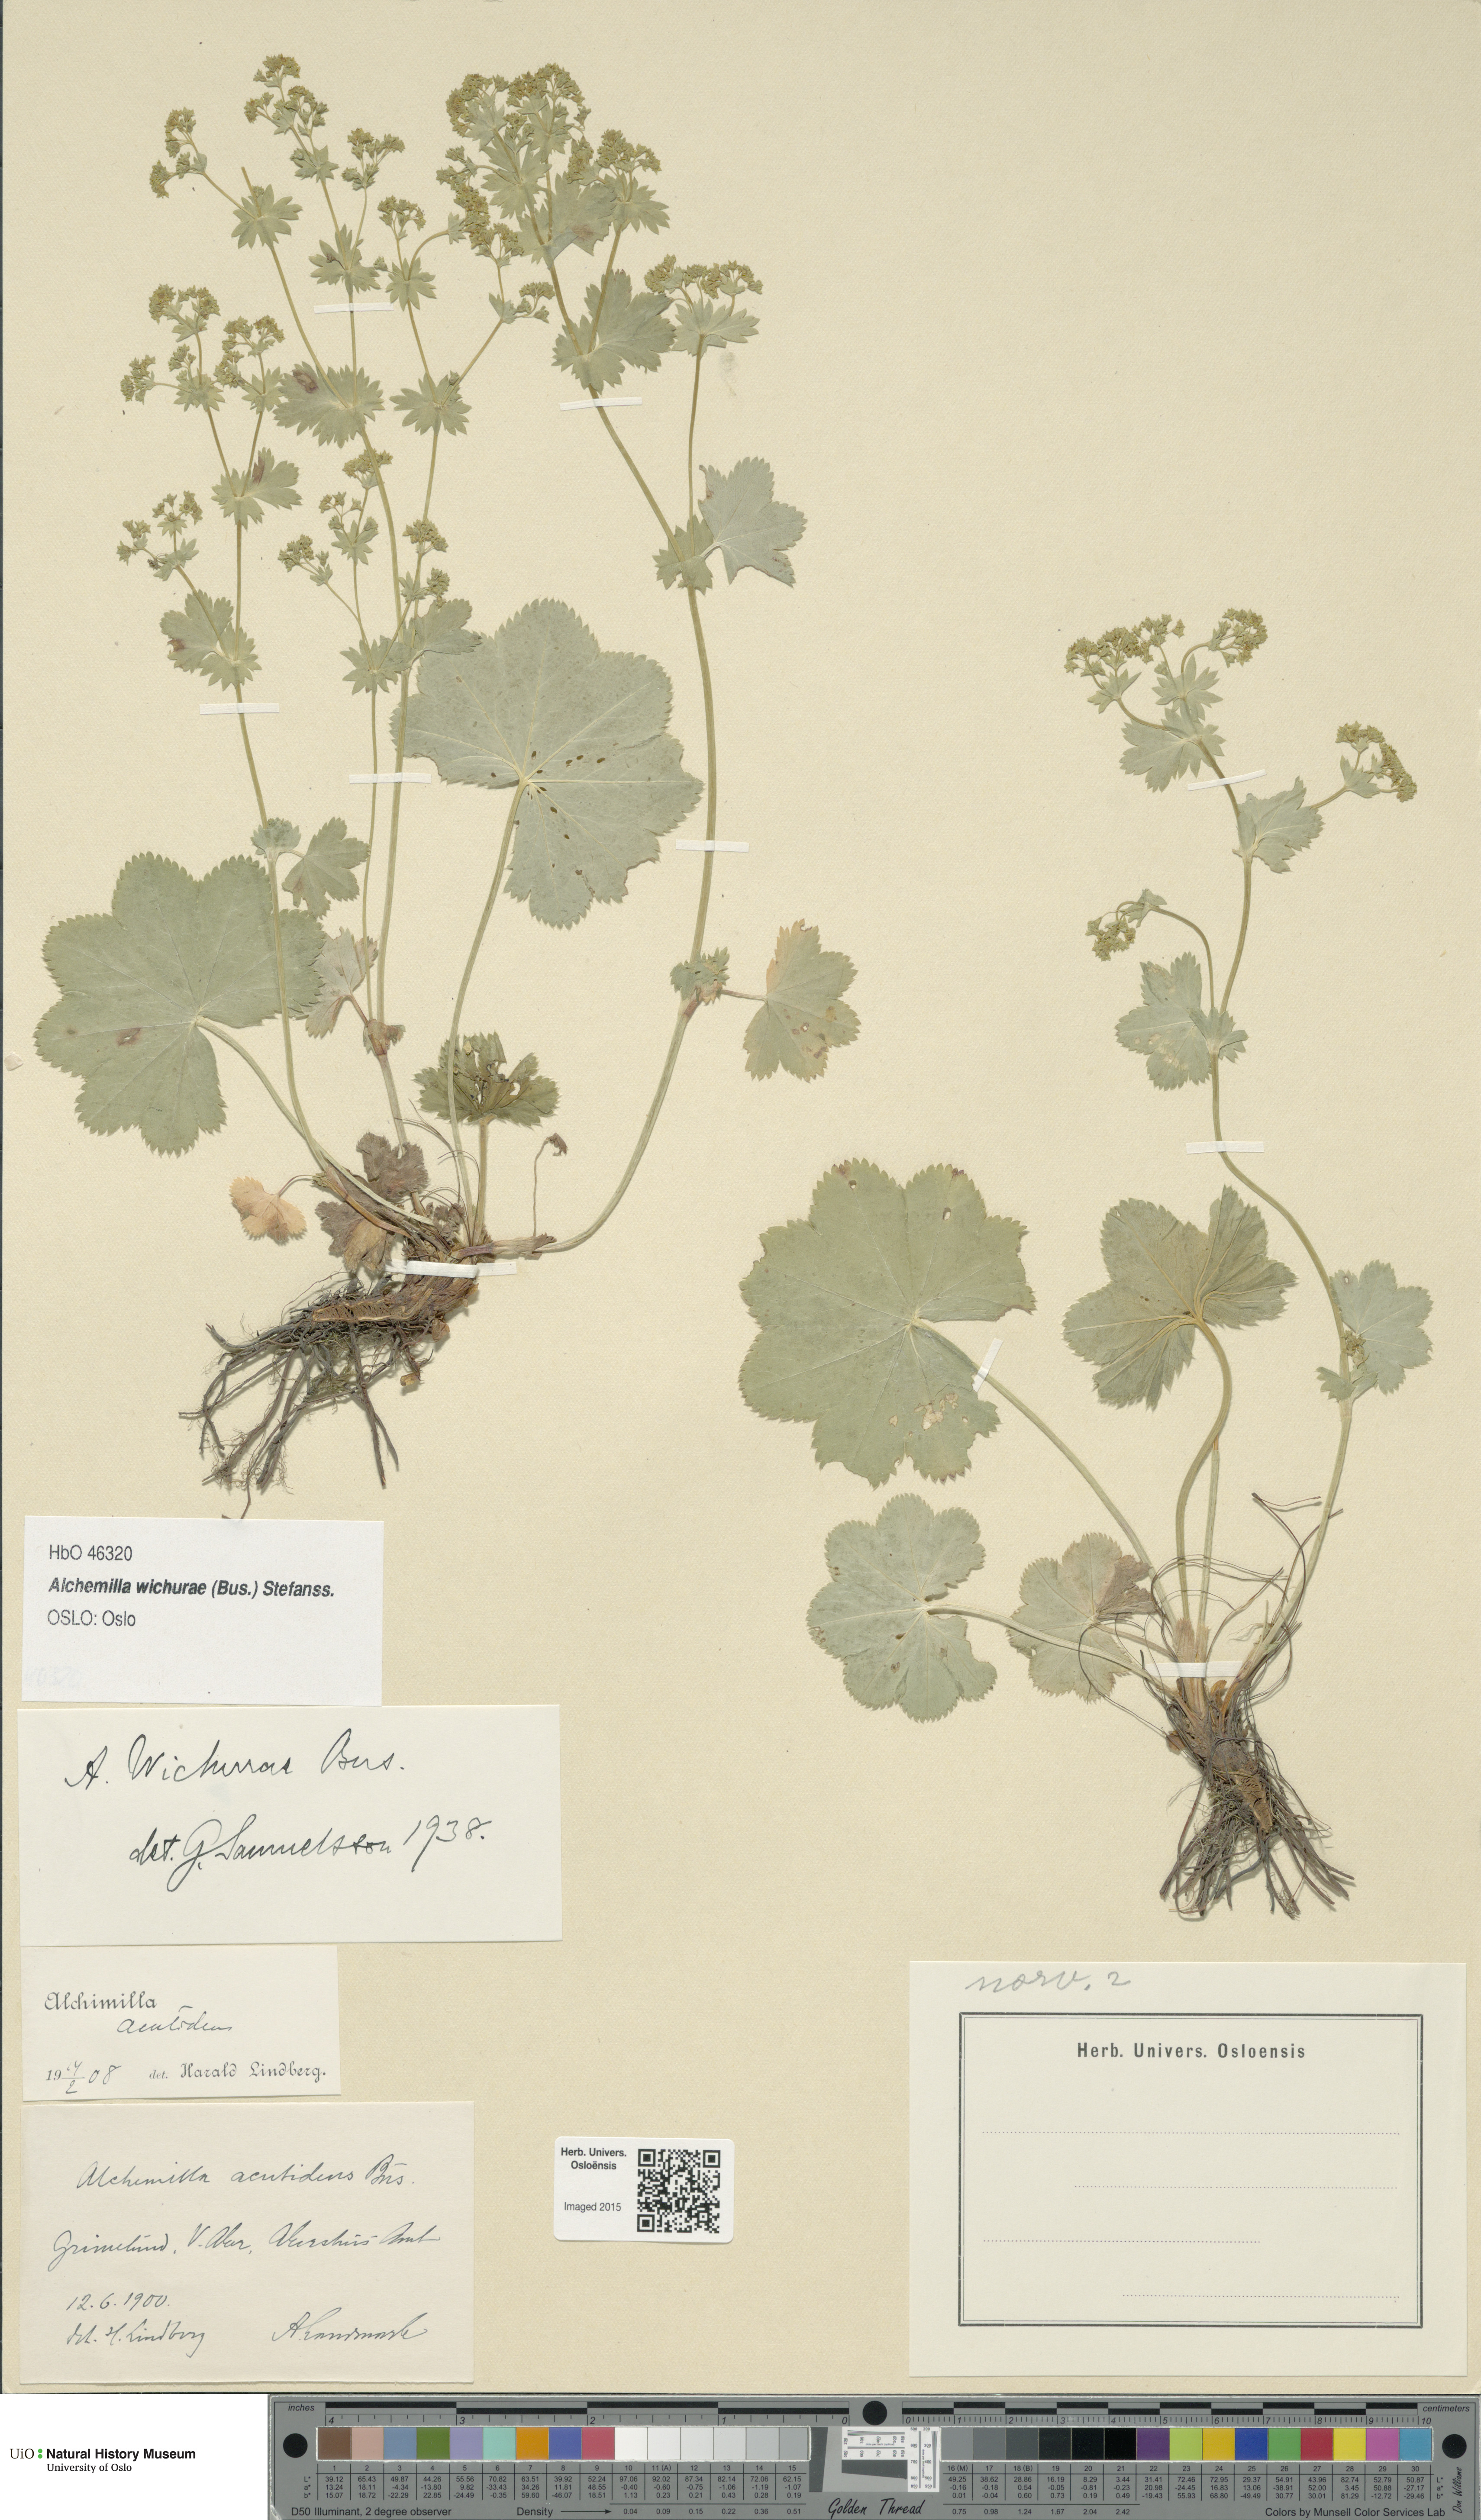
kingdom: Plantae
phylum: Tracheophyta
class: Magnoliopsida
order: Rosales
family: Rosaceae
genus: Alchemilla
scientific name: Alchemilla wichurae
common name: Rock lady's mantle
